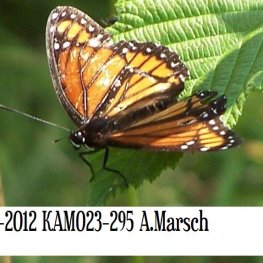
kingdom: Animalia
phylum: Arthropoda
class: Insecta
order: Lepidoptera
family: Nymphalidae
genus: Limenitis
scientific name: Limenitis archippus
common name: Viceroy
